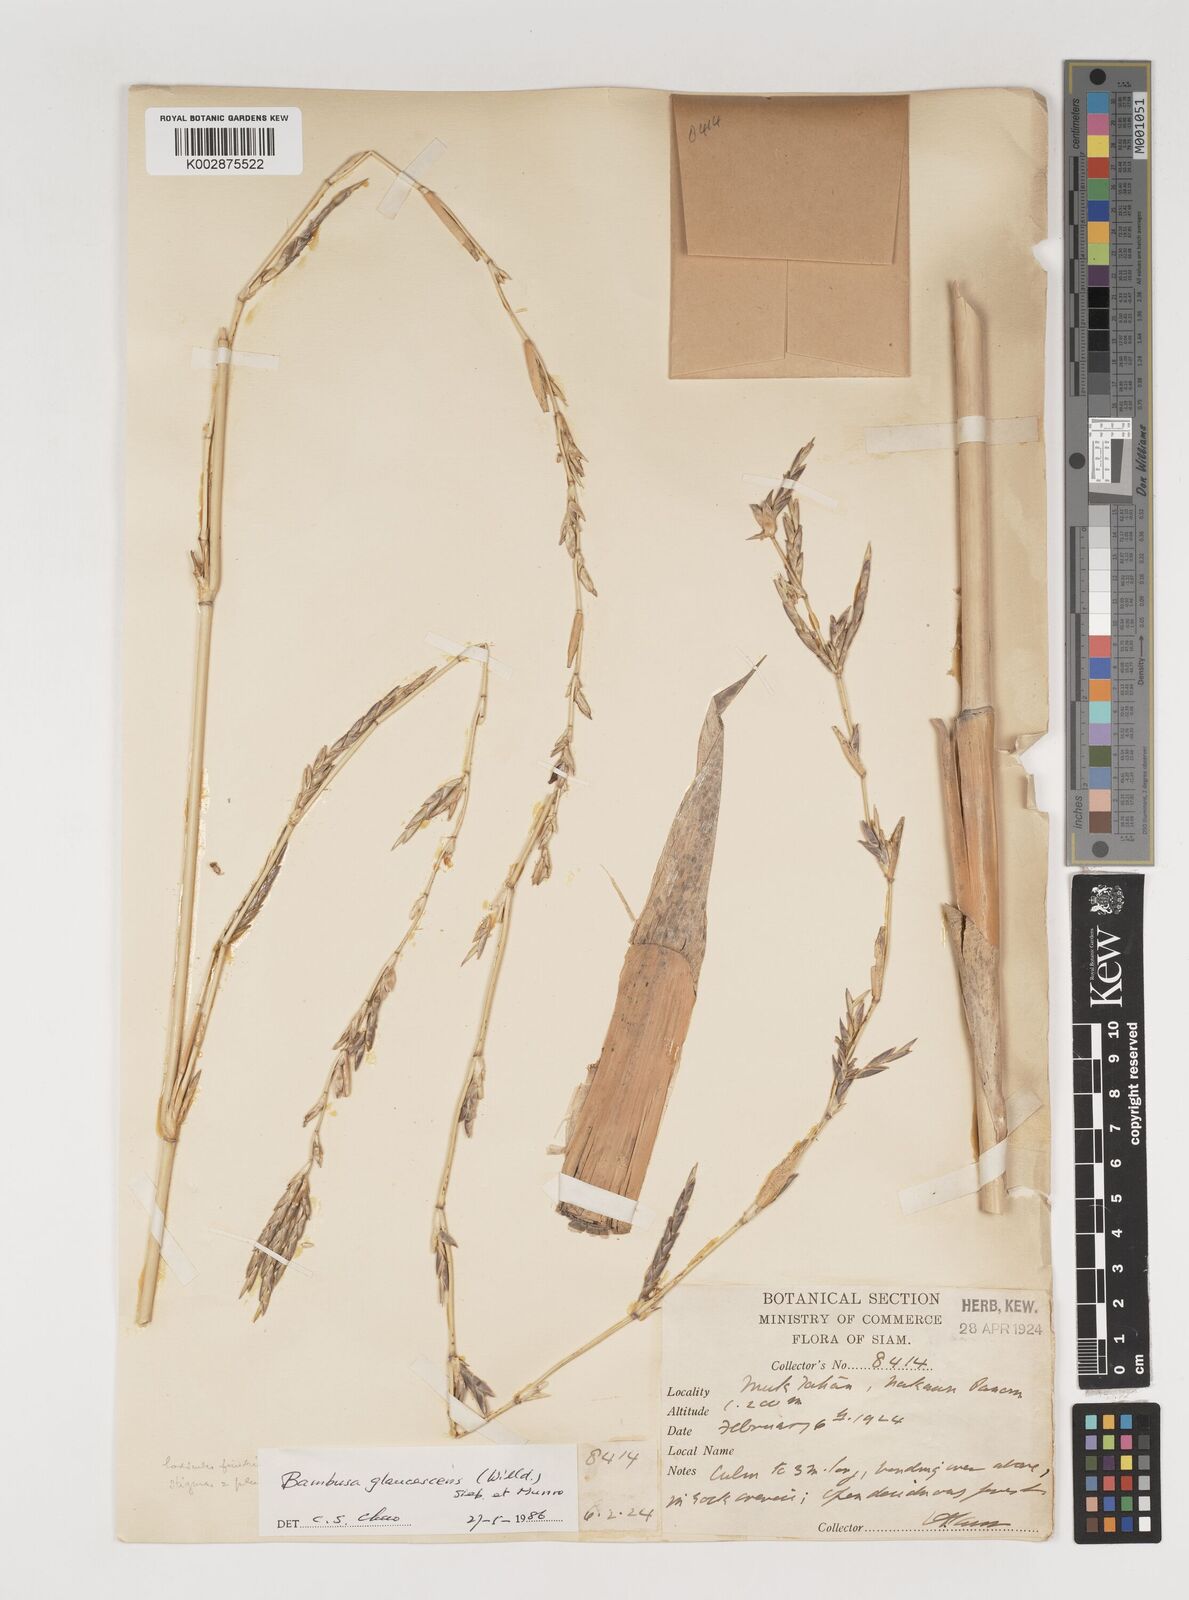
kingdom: Plantae
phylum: Tracheophyta
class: Liliopsida
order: Poales
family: Poaceae
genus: Vietnamosasa
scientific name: Vietnamosasa
